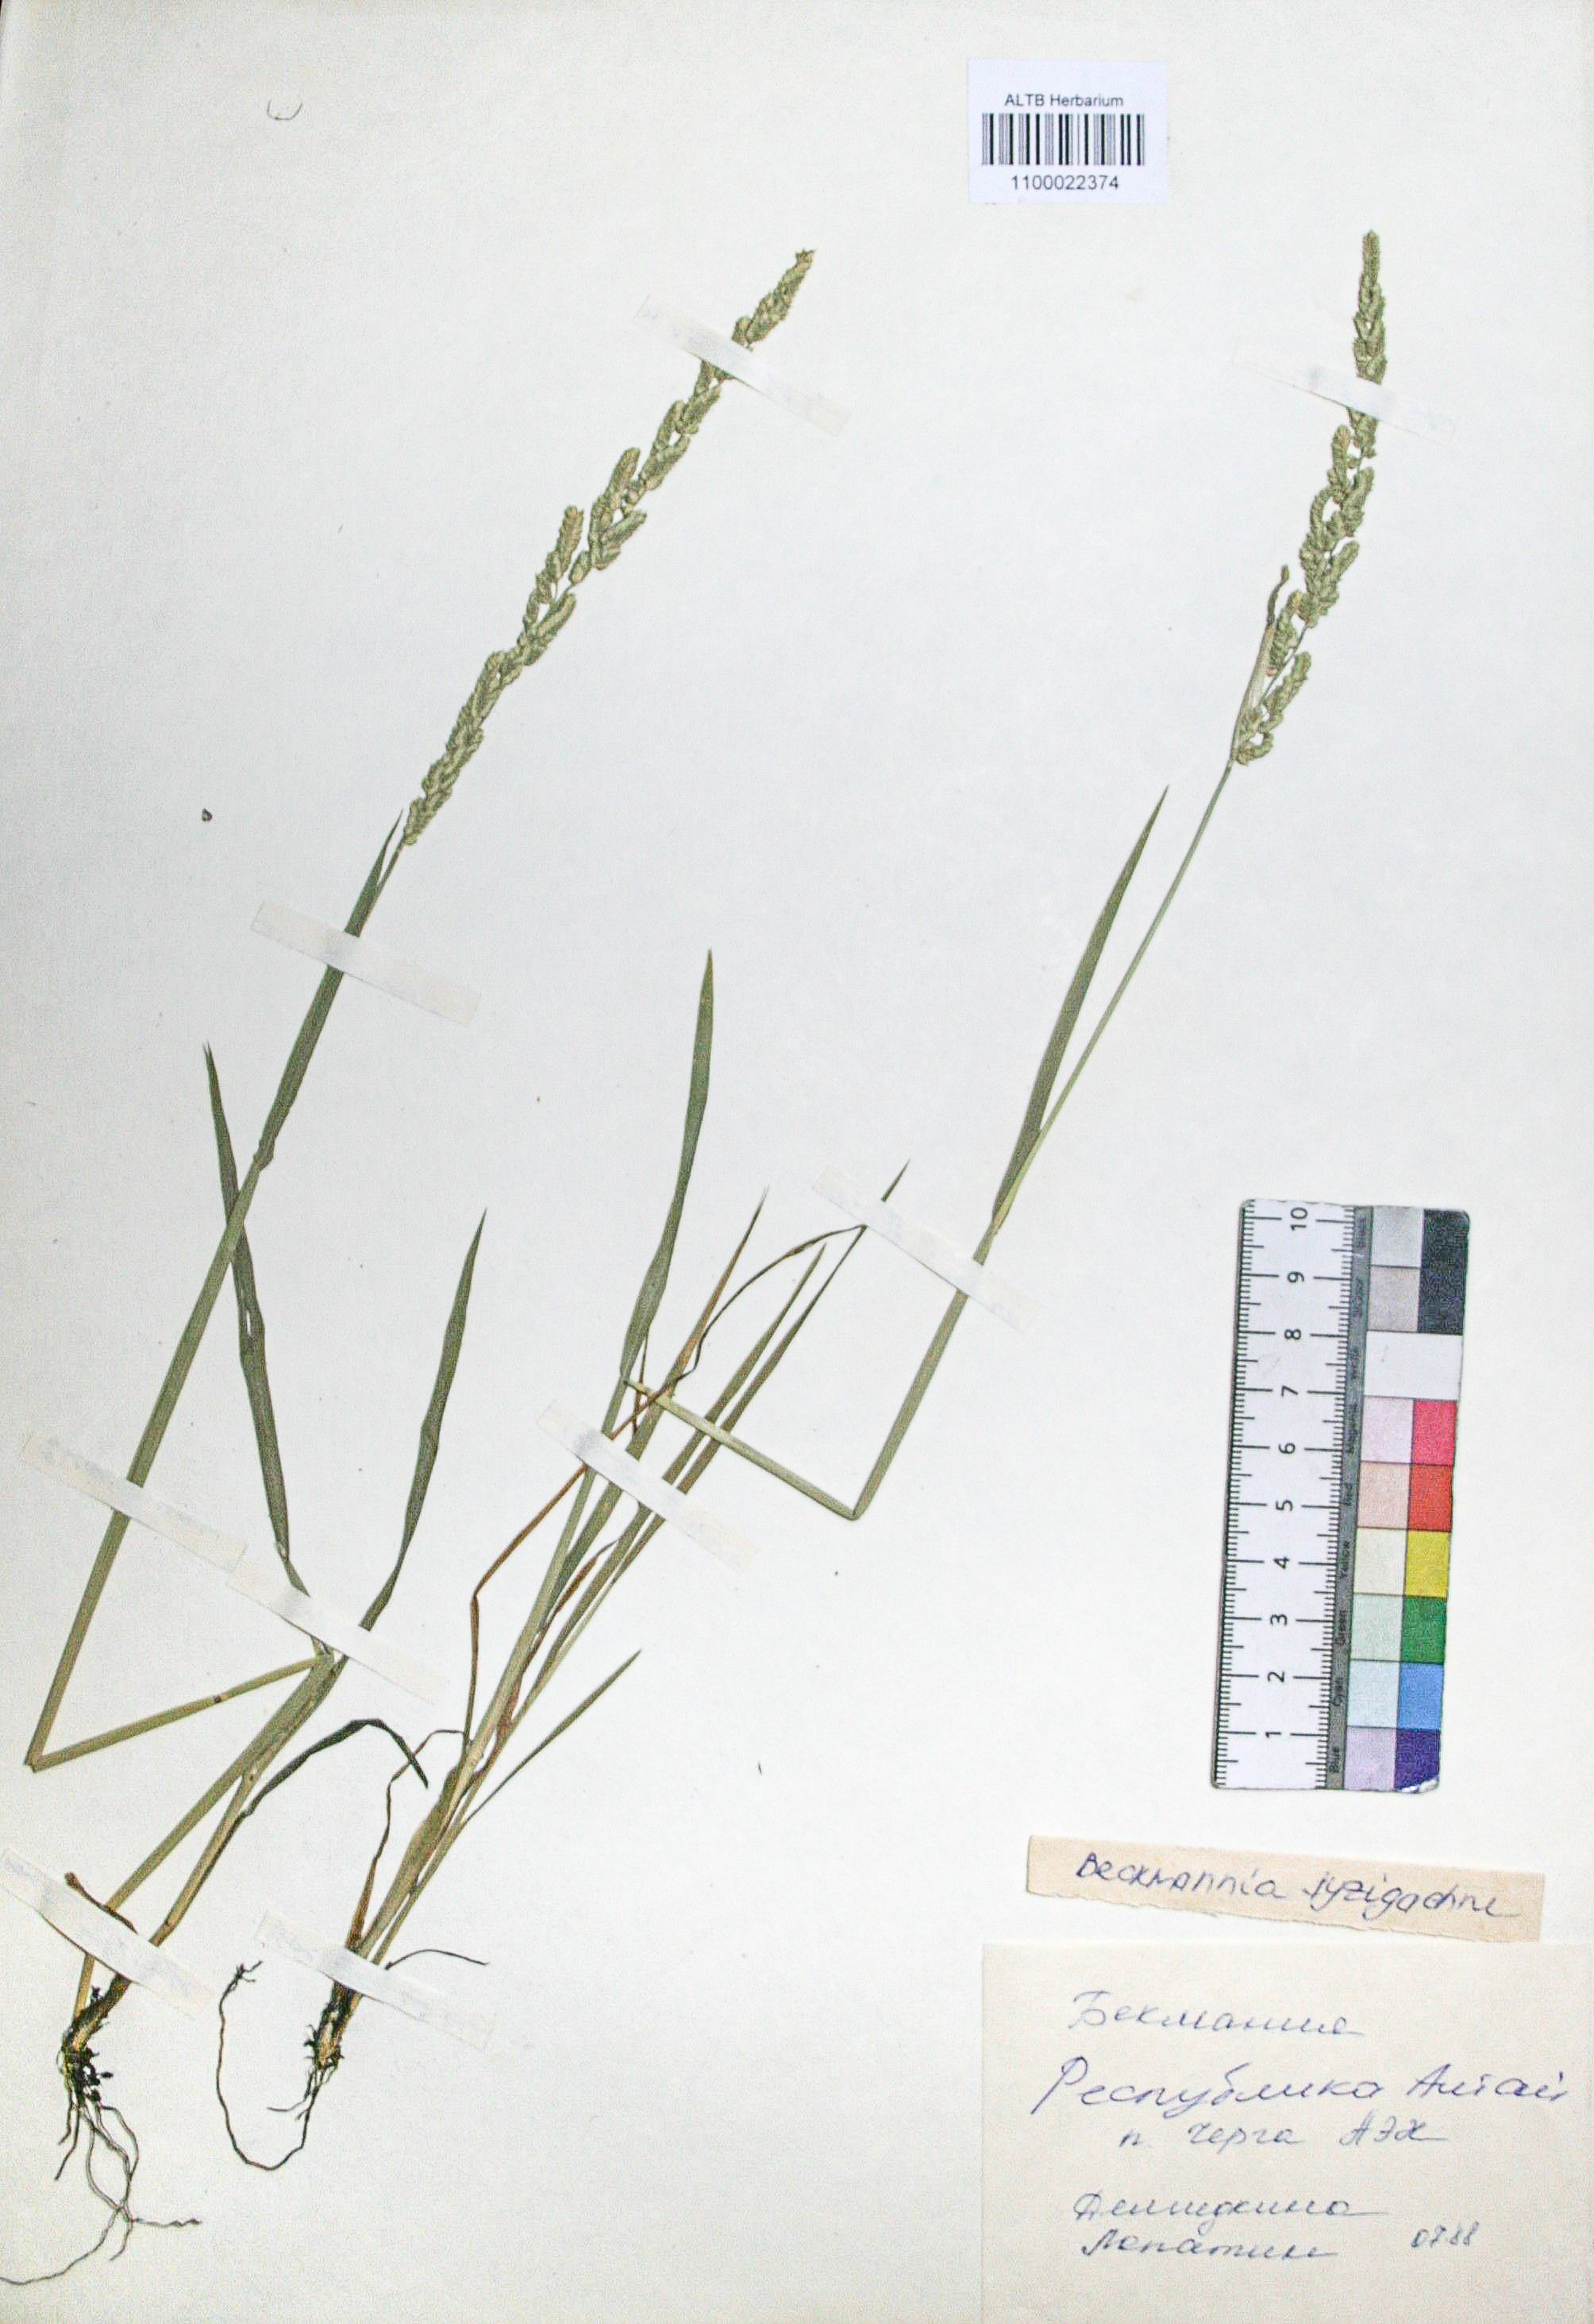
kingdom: Plantae
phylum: Tracheophyta
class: Liliopsida
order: Poales
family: Poaceae
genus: Beckmannia
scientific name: Beckmannia syzigachne
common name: American slough-grass
